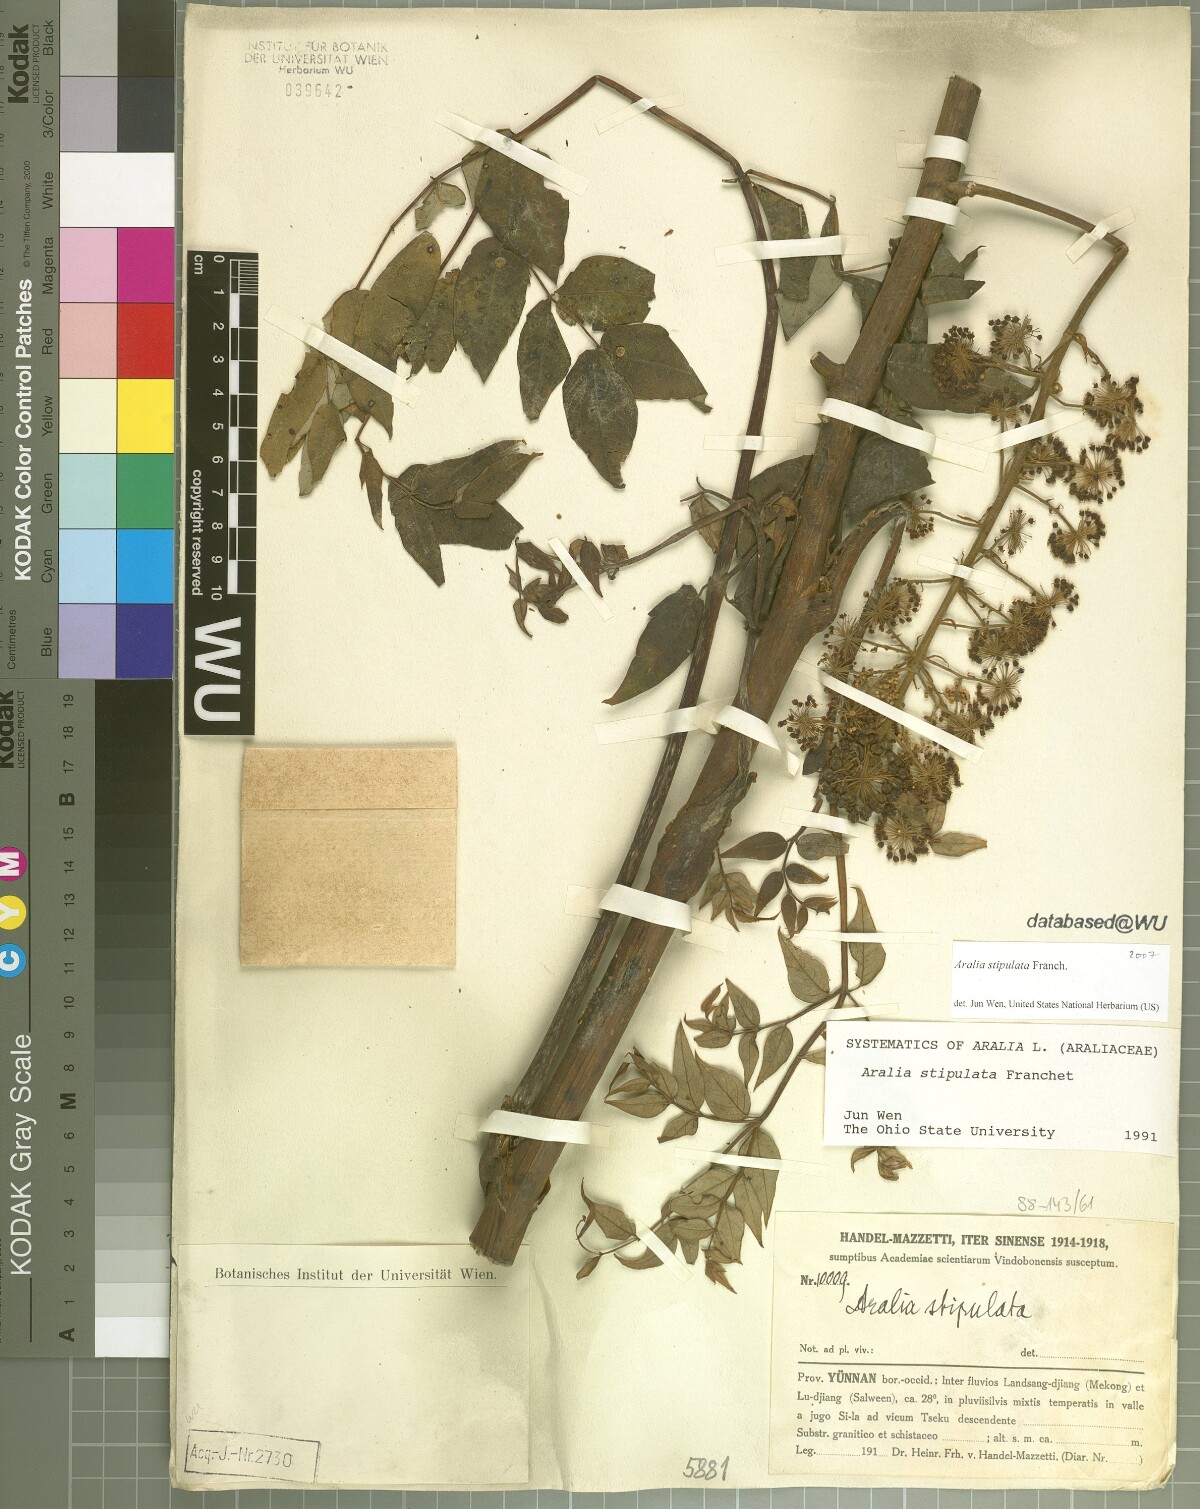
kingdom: Plantae
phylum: Tracheophyta
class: Magnoliopsida
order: Apiales
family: Araliaceae
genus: Aralia
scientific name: Aralia stipulata
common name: Chinese angelica-tree
